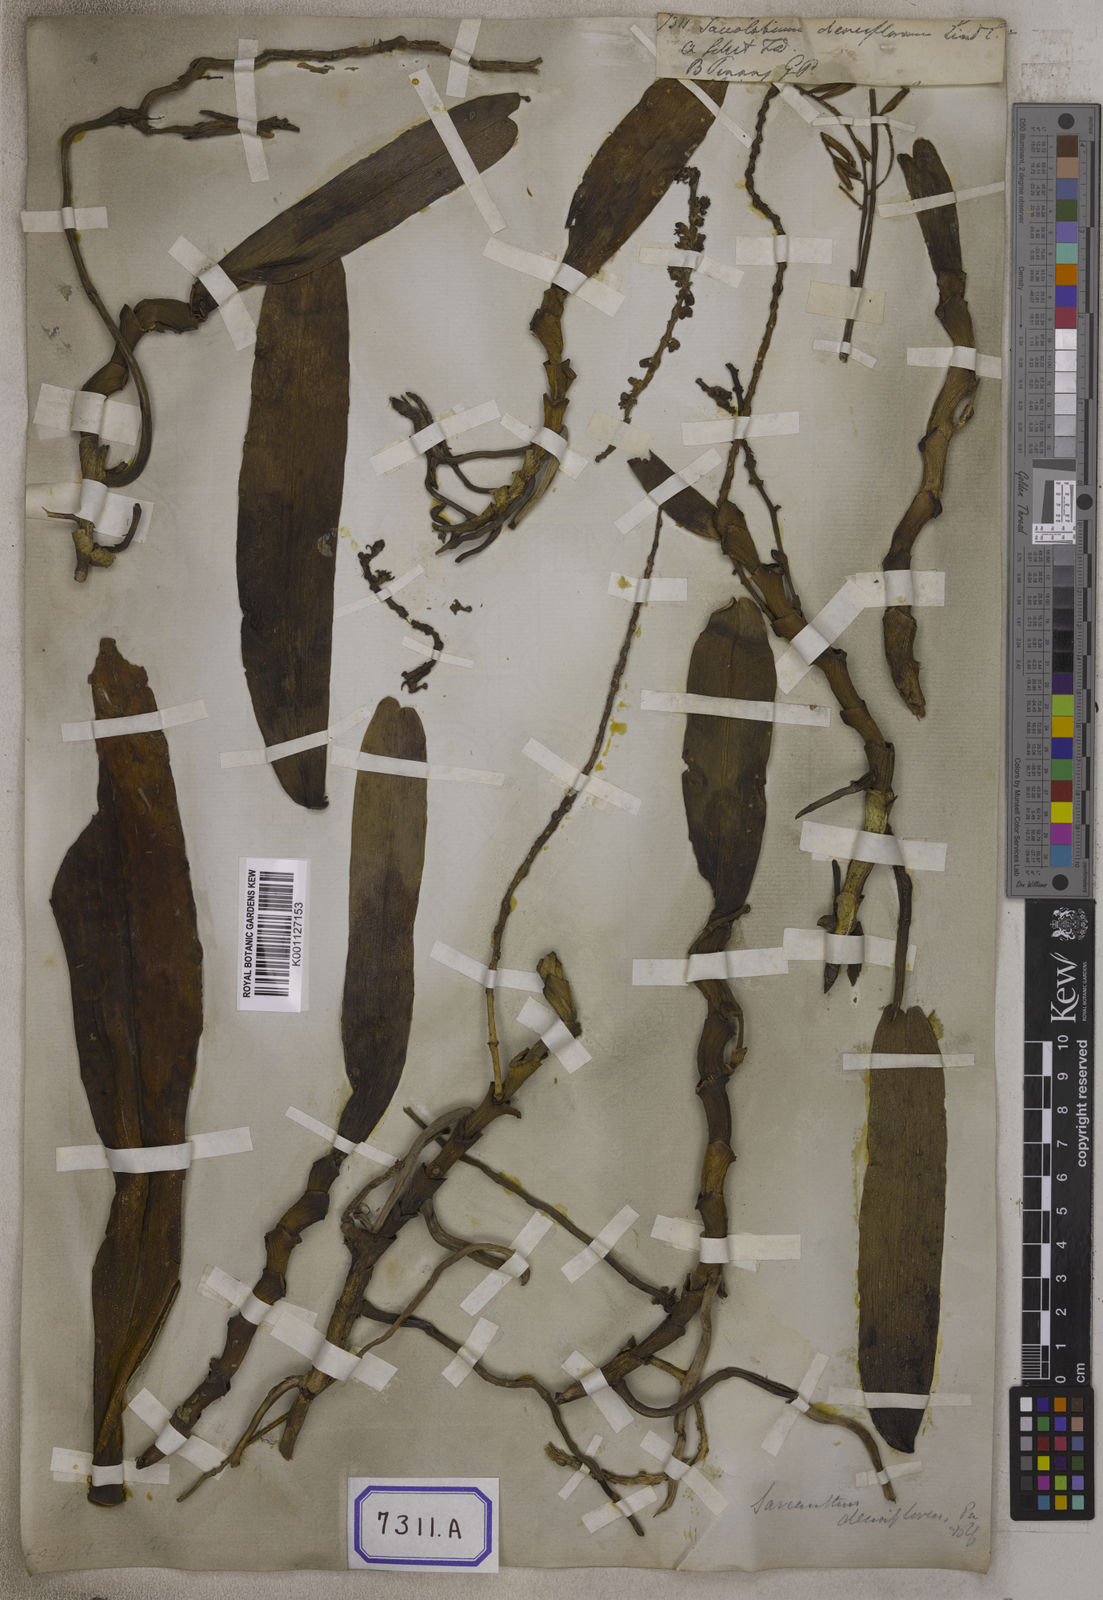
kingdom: Plantae
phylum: Tracheophyta
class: Liliopsida
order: Asparagales
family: Orchidaceae
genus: Robiquetia
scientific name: Robiquetia spathulata
